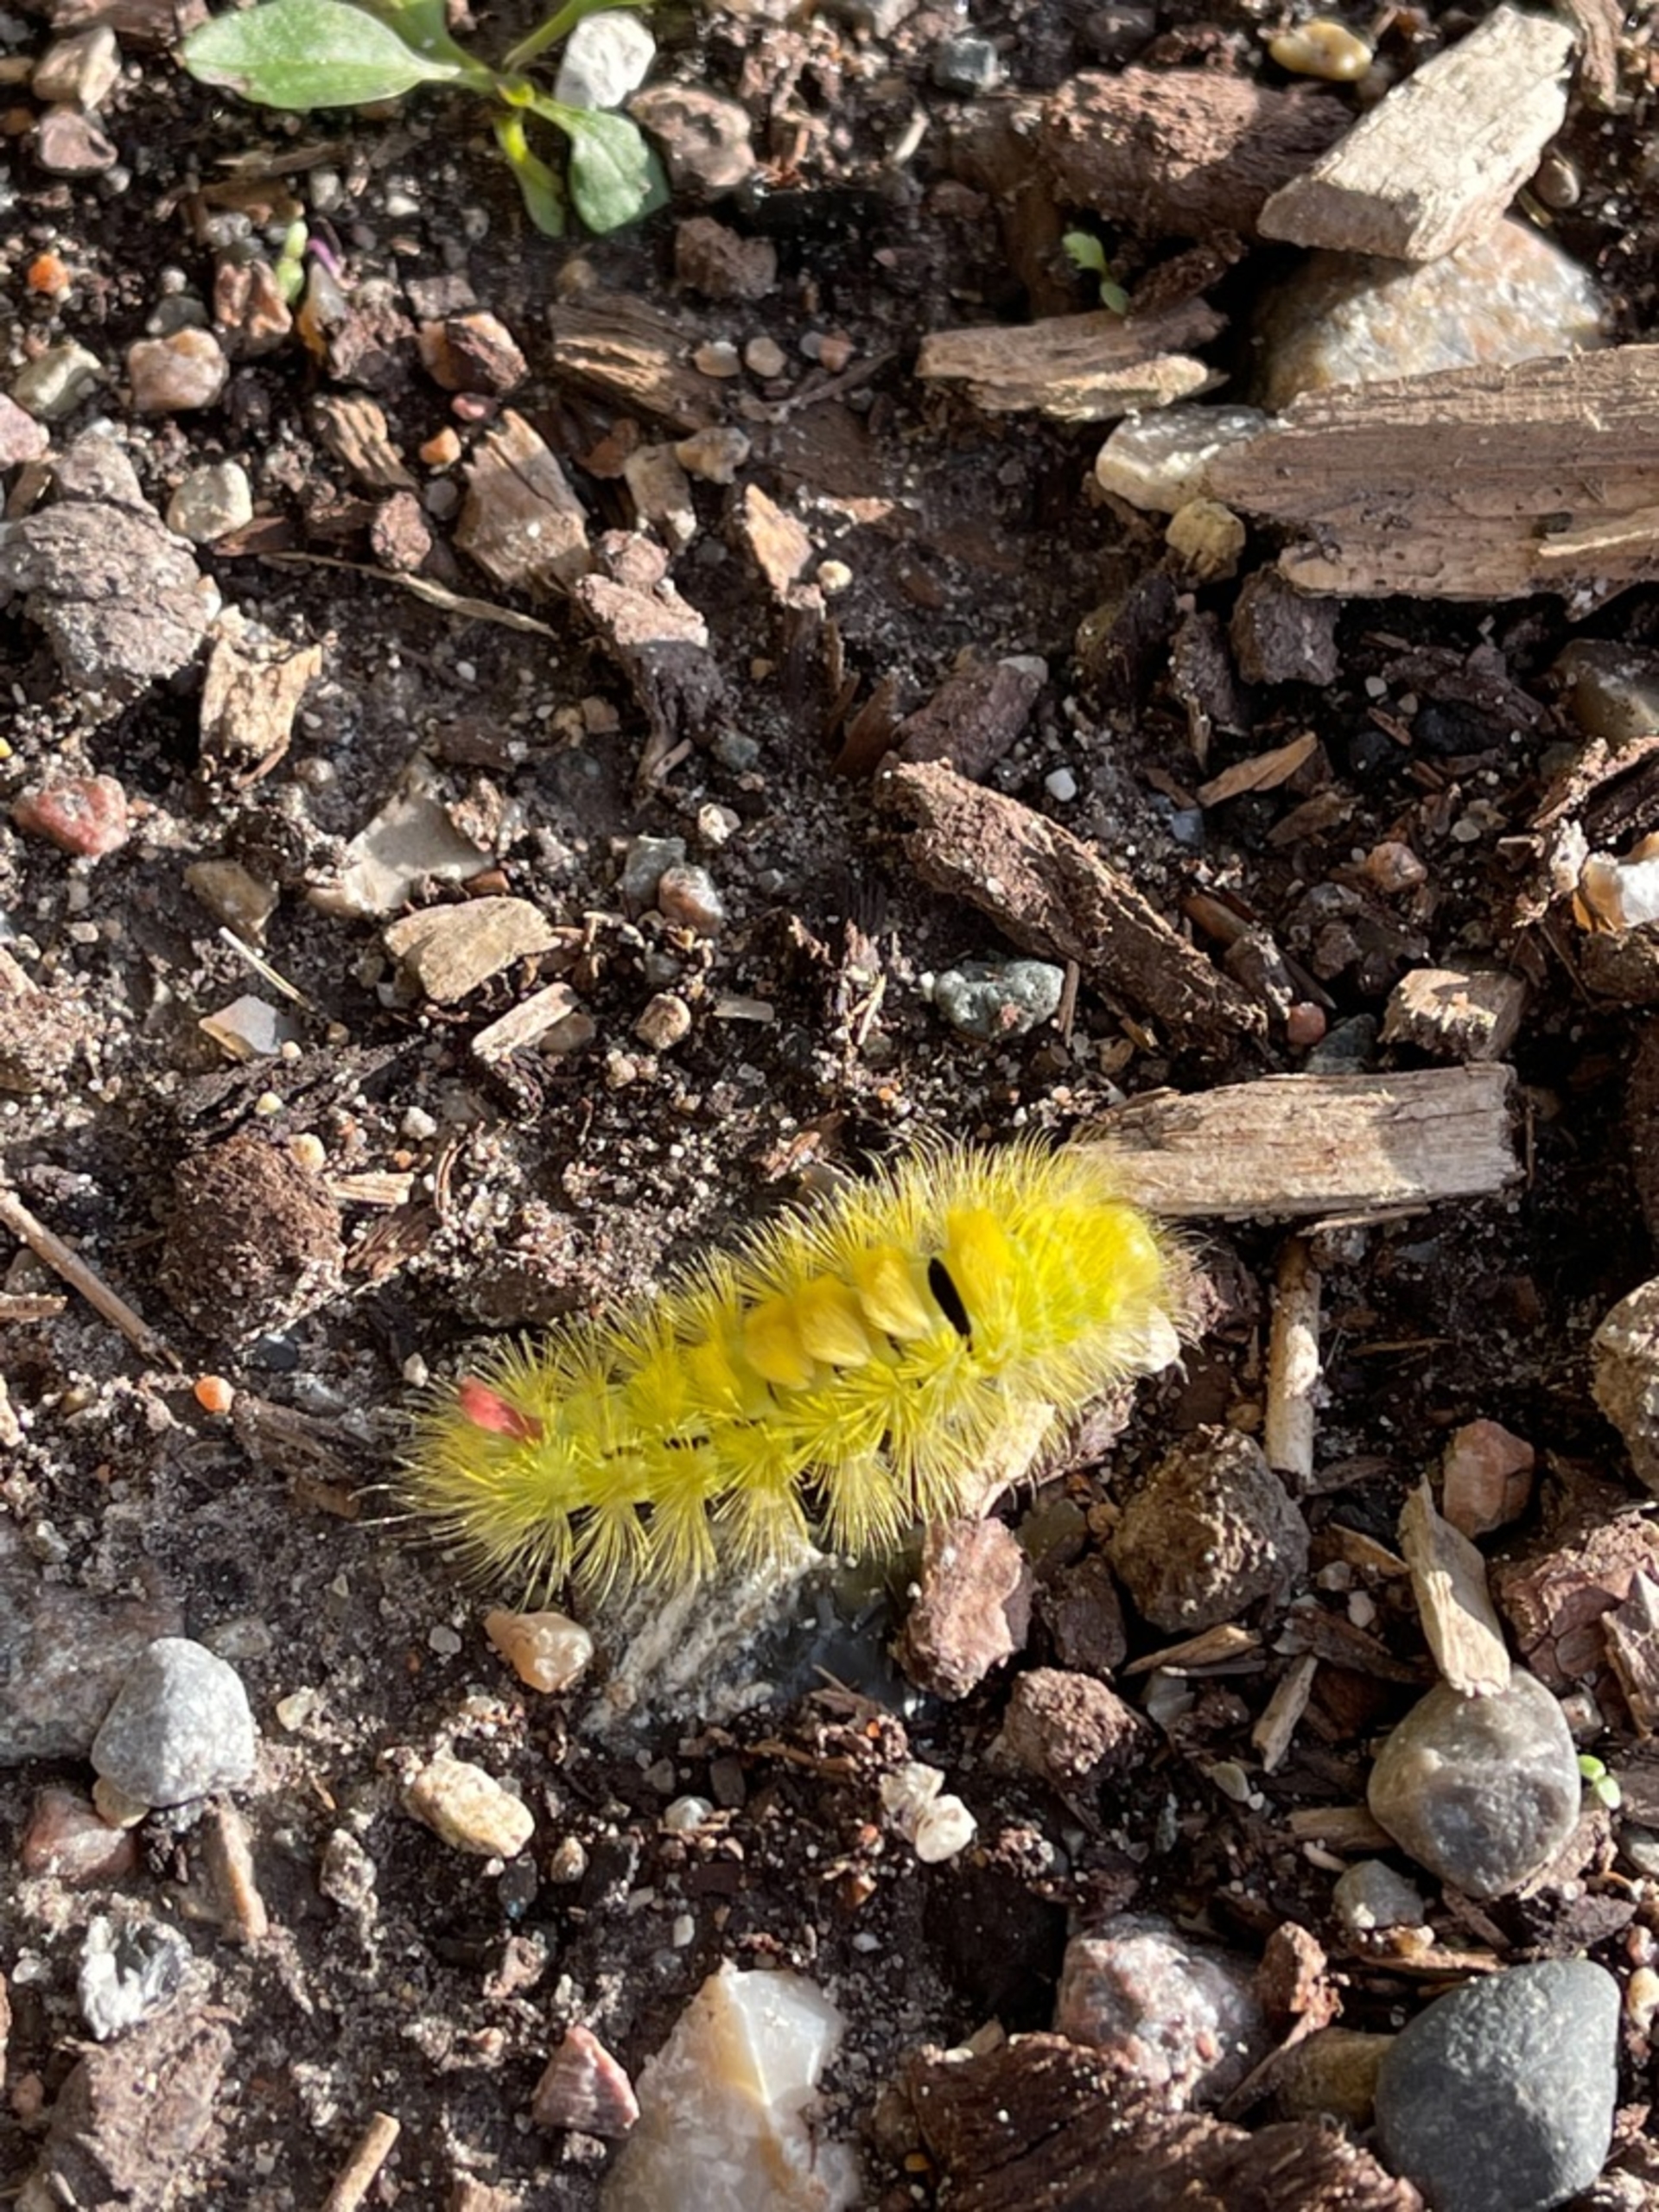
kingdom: Animalia
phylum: Arthropoda
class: Insecta
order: Lepidoptera
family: Erebidae
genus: Calliteara
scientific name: Calliteara pudibunda
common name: Bøgenonne
